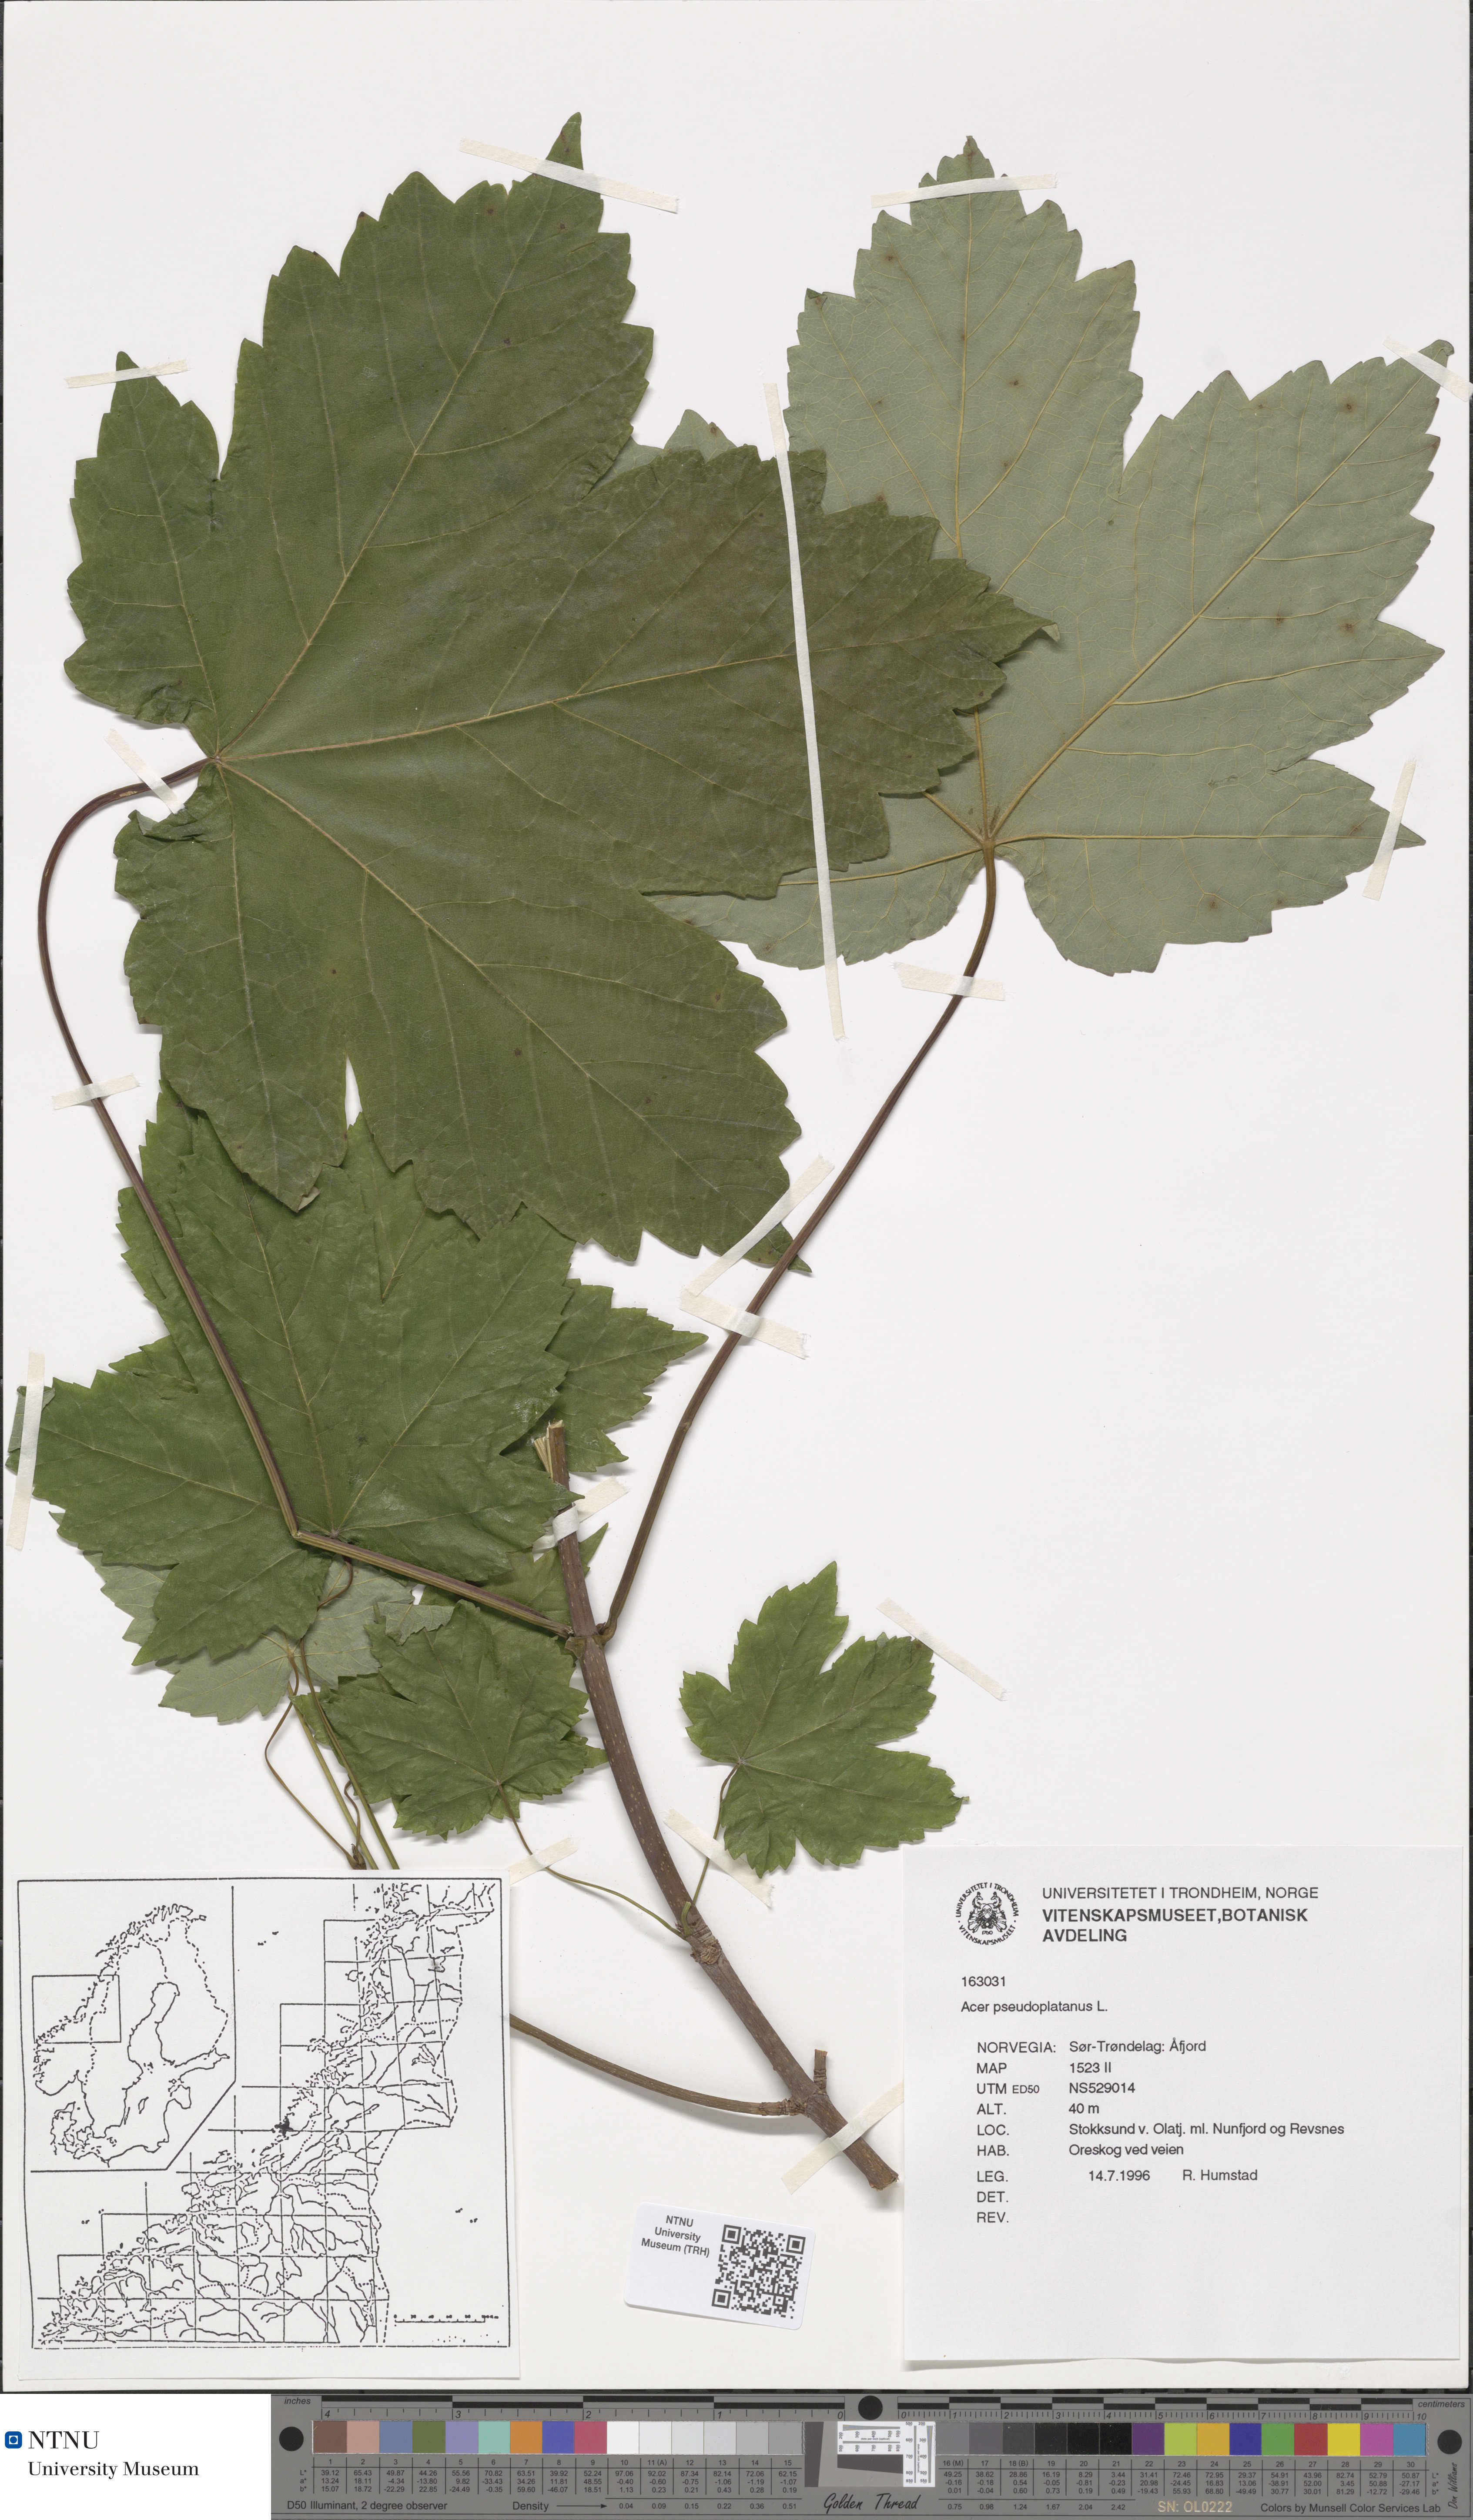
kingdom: Plantae
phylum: Tracheophyta
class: Magnoliopsida
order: Sapindales
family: Sapindaceae
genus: Acer
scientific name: Acer pseudoplatanus
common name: Sycamore
